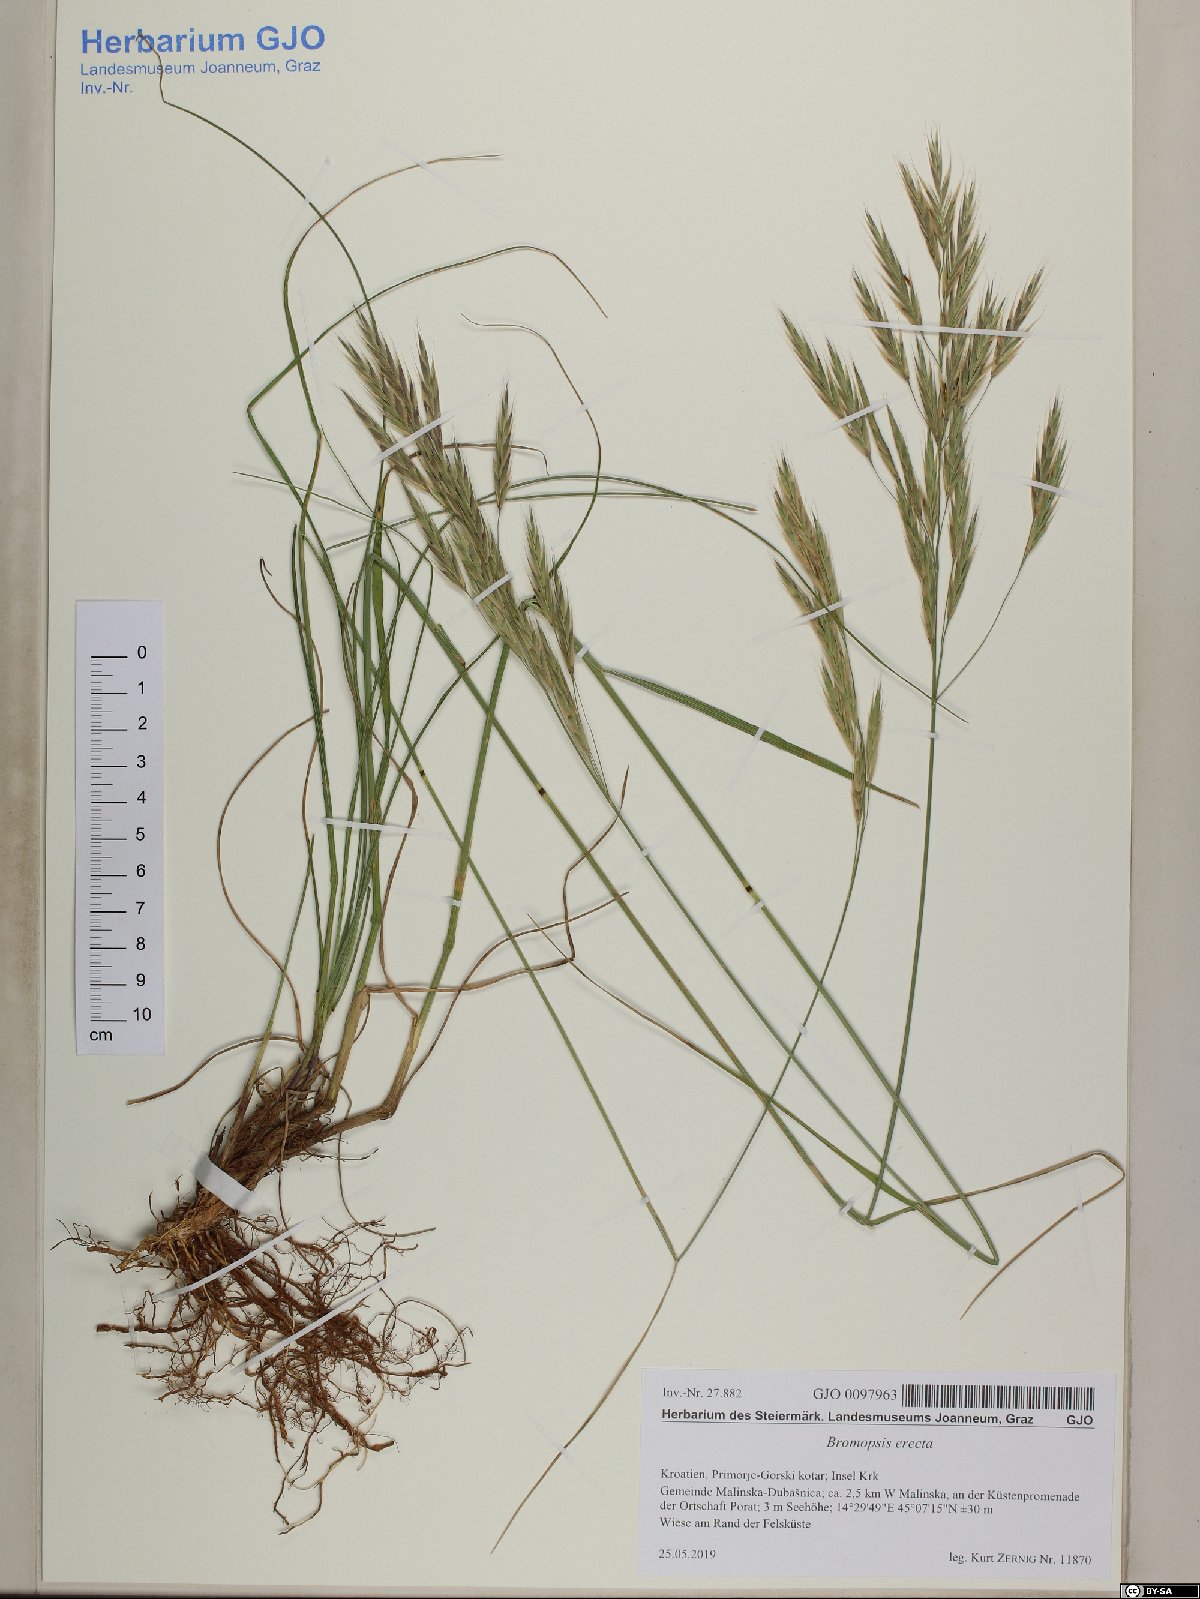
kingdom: Plantae
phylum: Tracheophyta
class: Liliopsida
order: Poales
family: Poaceae
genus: Bromus
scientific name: Bromus erectus
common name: Erect brome
